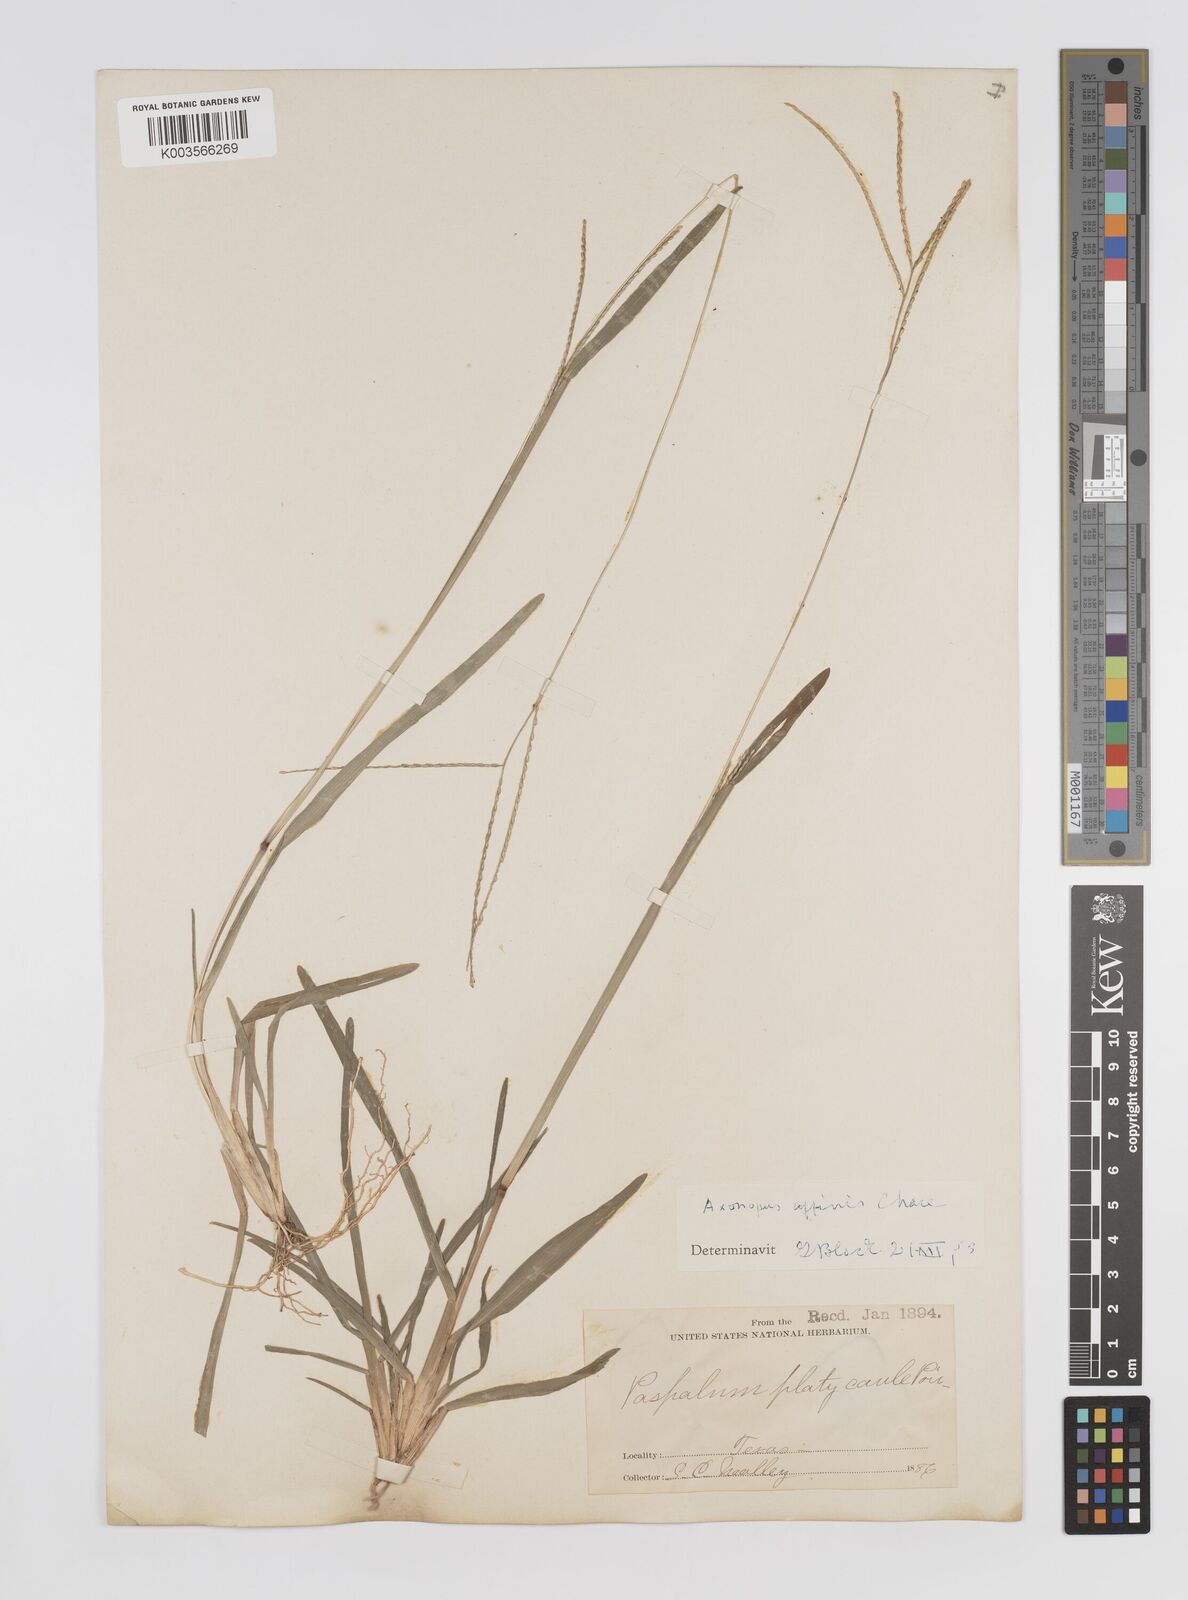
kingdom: Plantae
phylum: Tracheophyta
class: Liliopsida
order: Poales
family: Poaceae
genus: Axonopus
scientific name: Axonopus fissifolius
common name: Common carpetgrass
